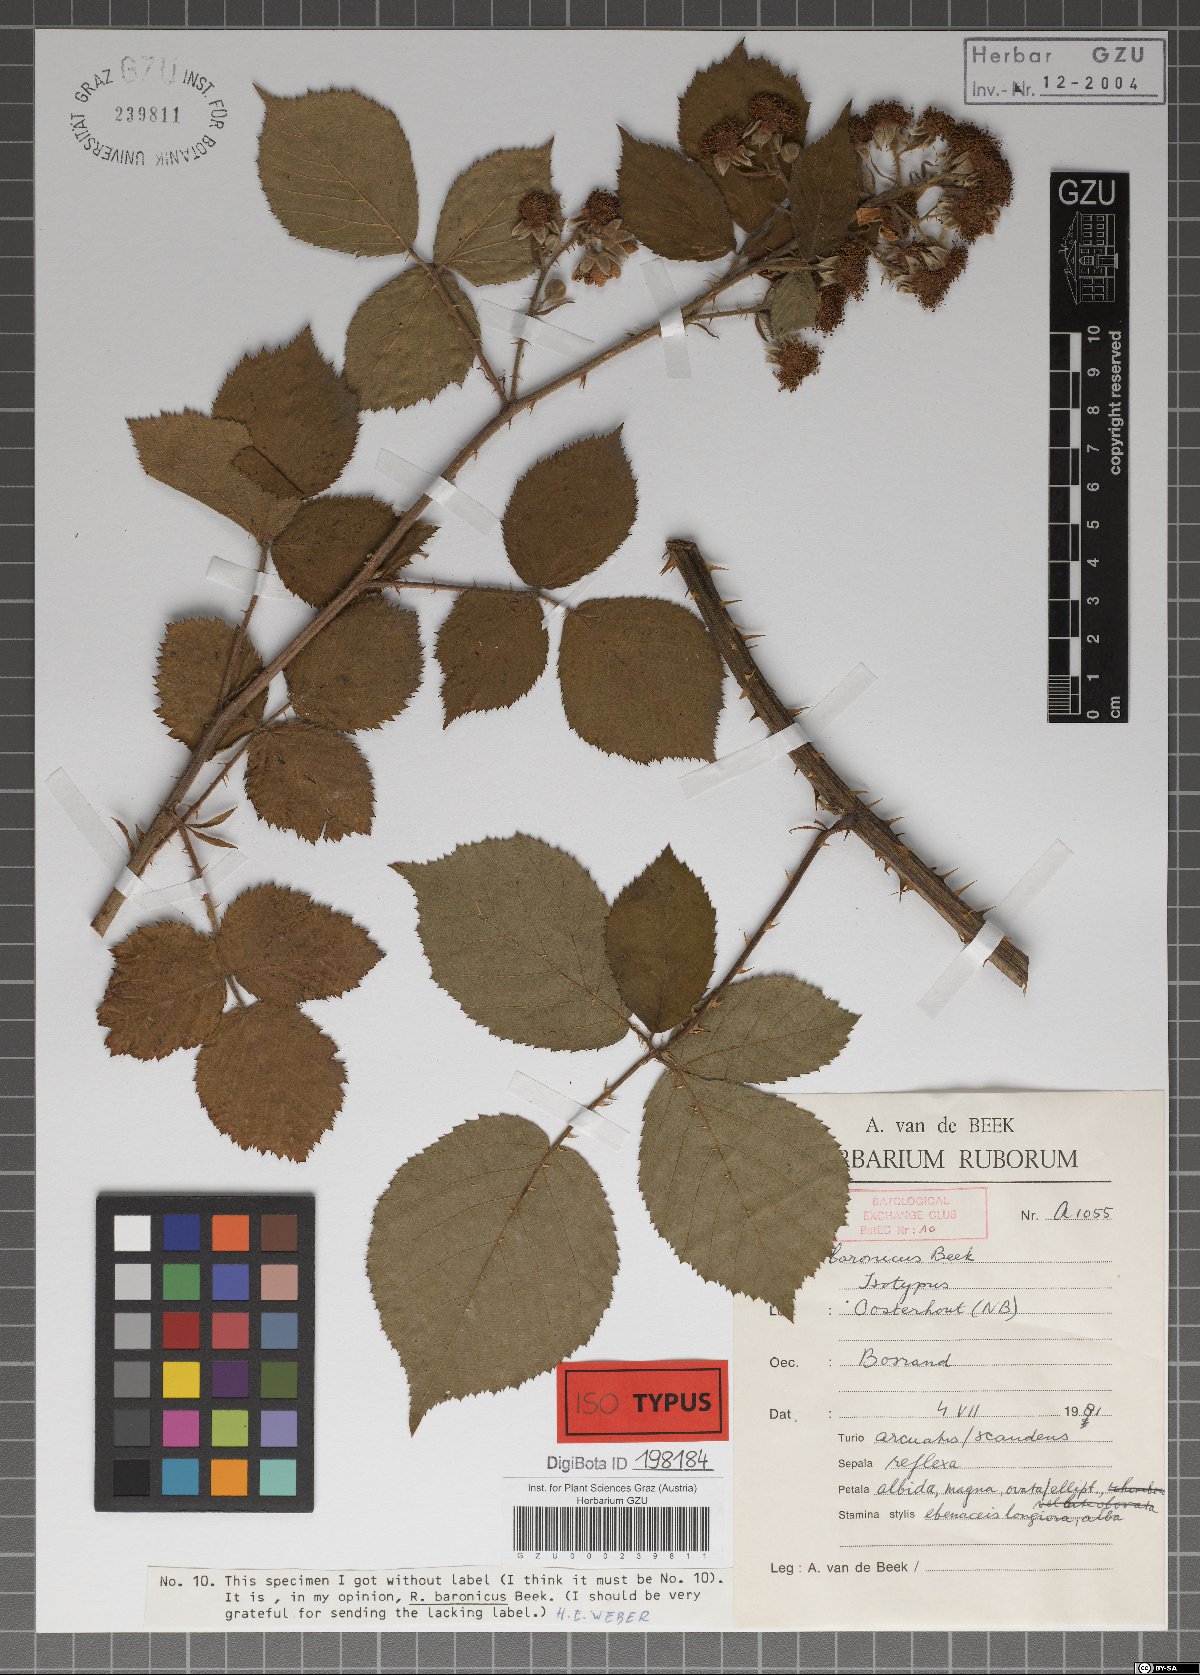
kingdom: Plantae
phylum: Tracheophyta
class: Magnoliopsida
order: Rosales
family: Rosaceae
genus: Rubus
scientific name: Rubus baronicus
